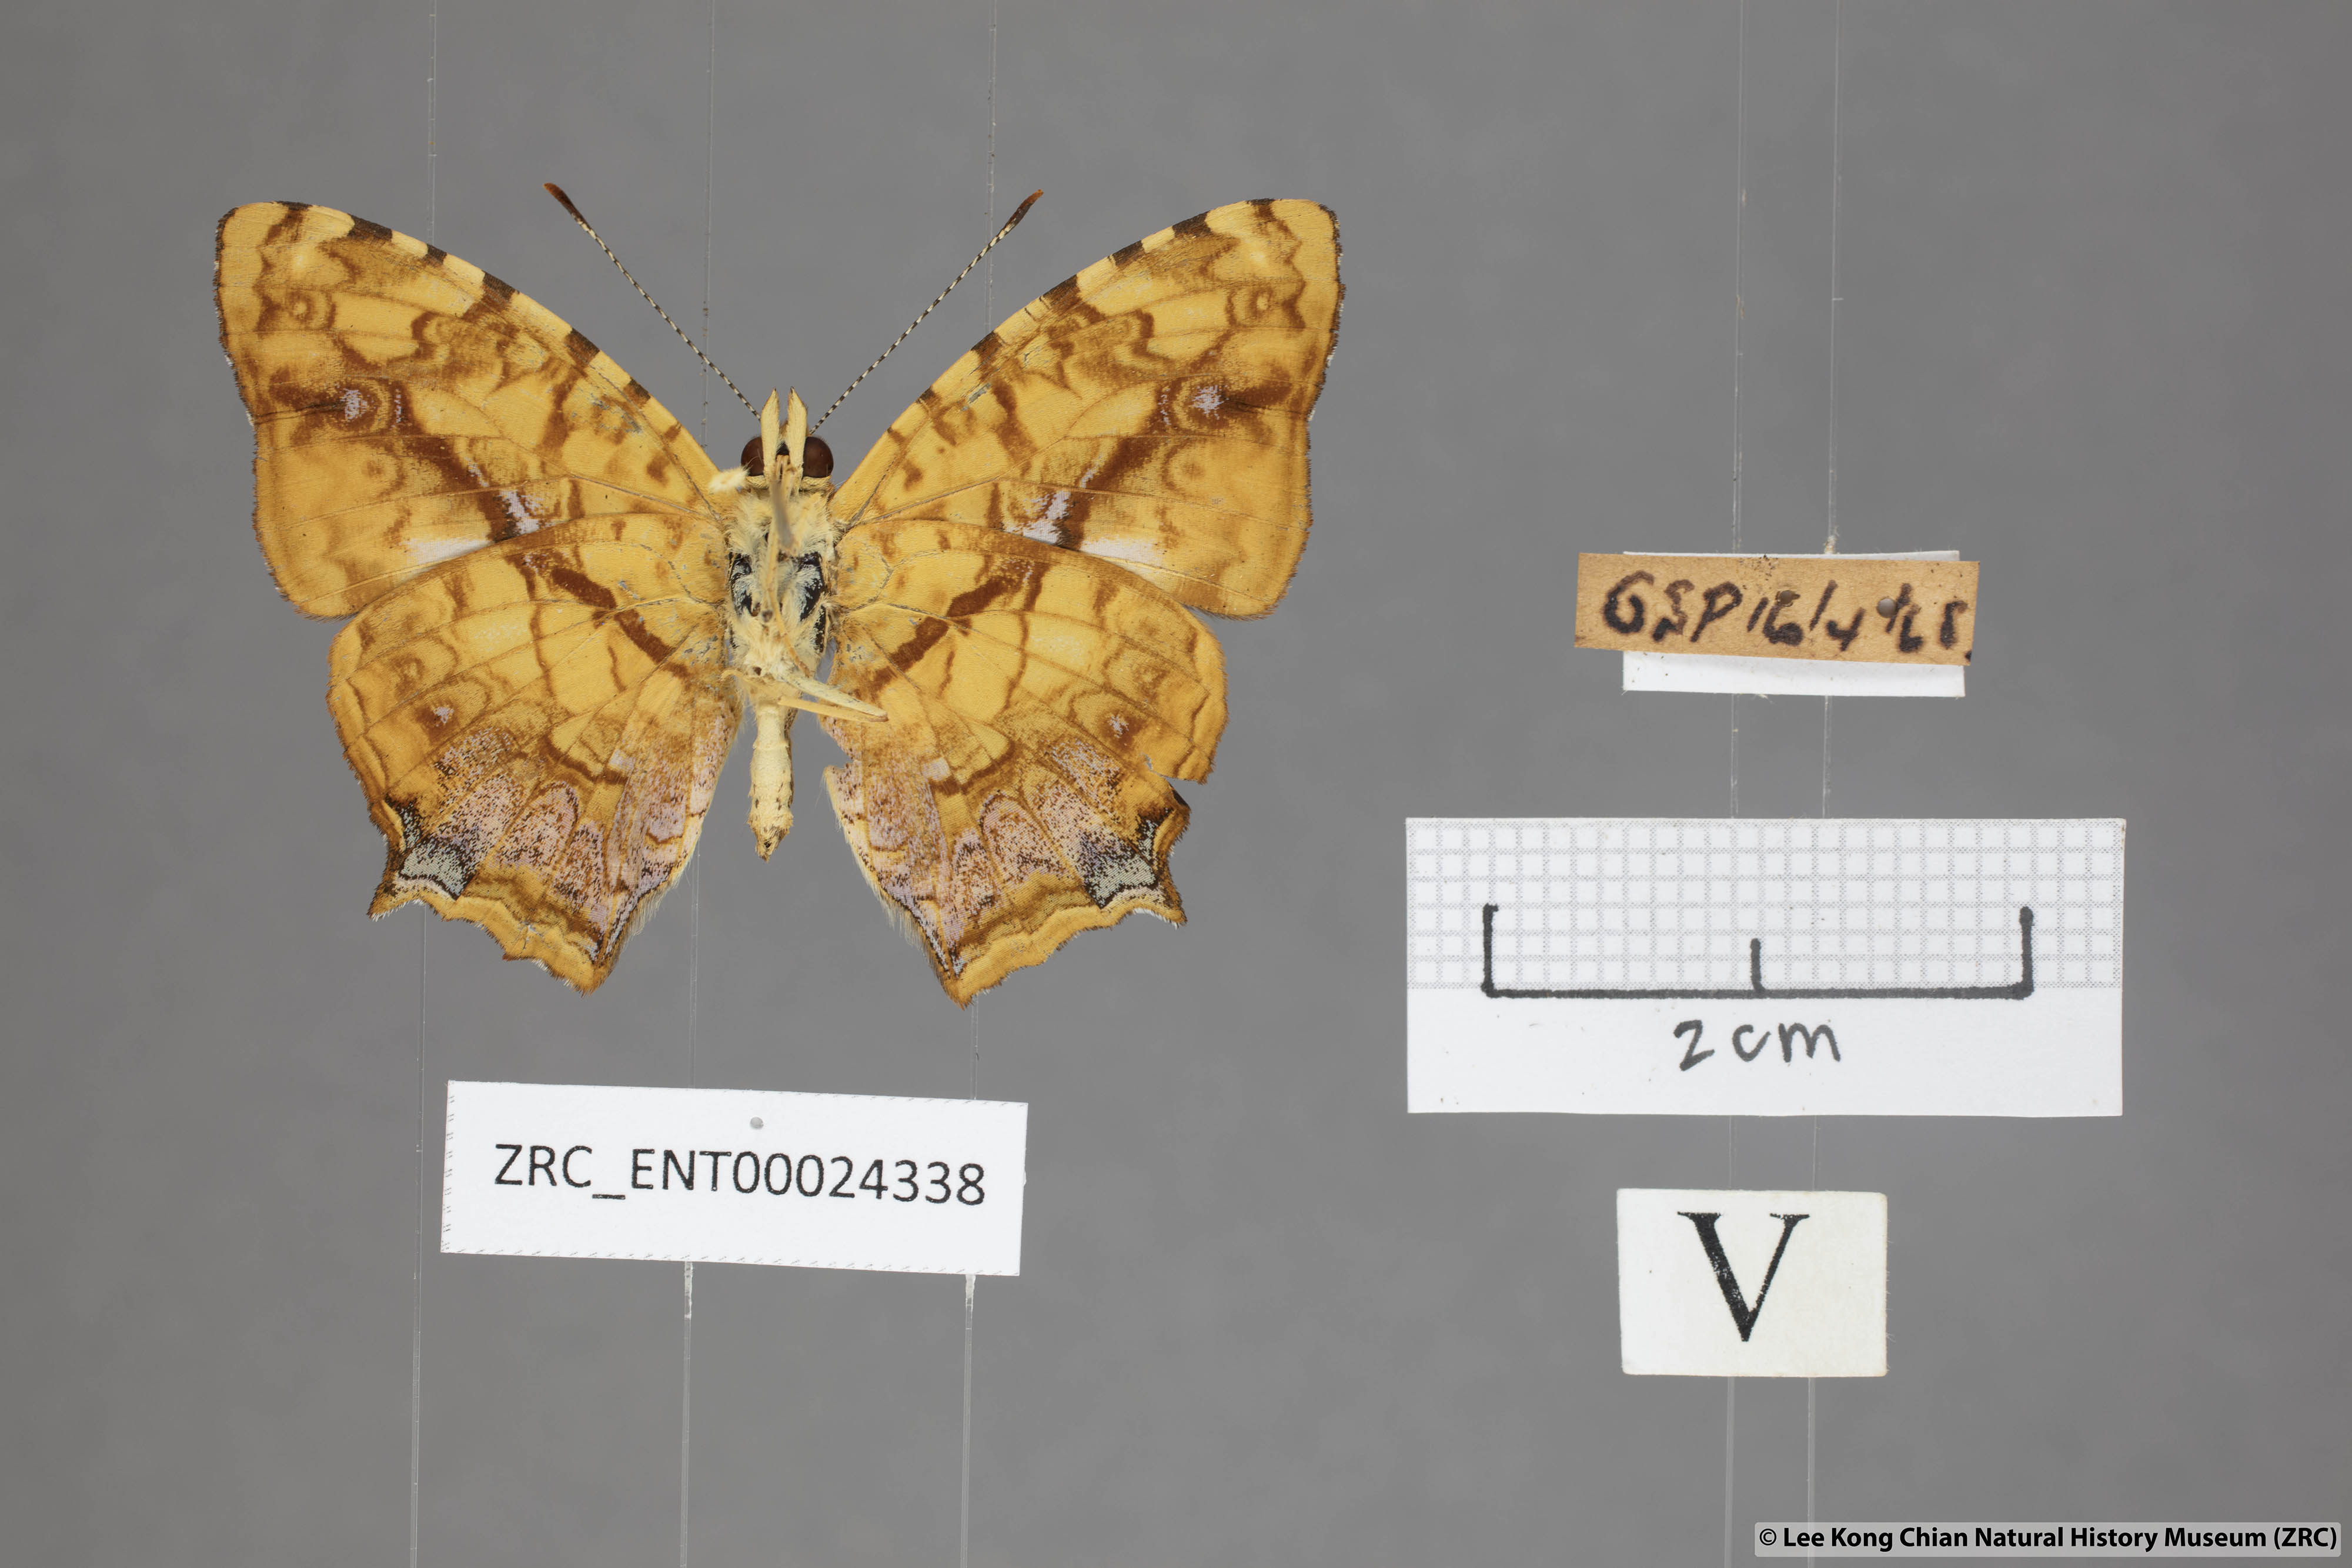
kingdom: Animalia
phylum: Arthropoda
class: Insecta
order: Lepidoptera
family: Nymphalidae
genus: Symbrenthia
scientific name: Symbrenthia hippoclus
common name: Common jester
